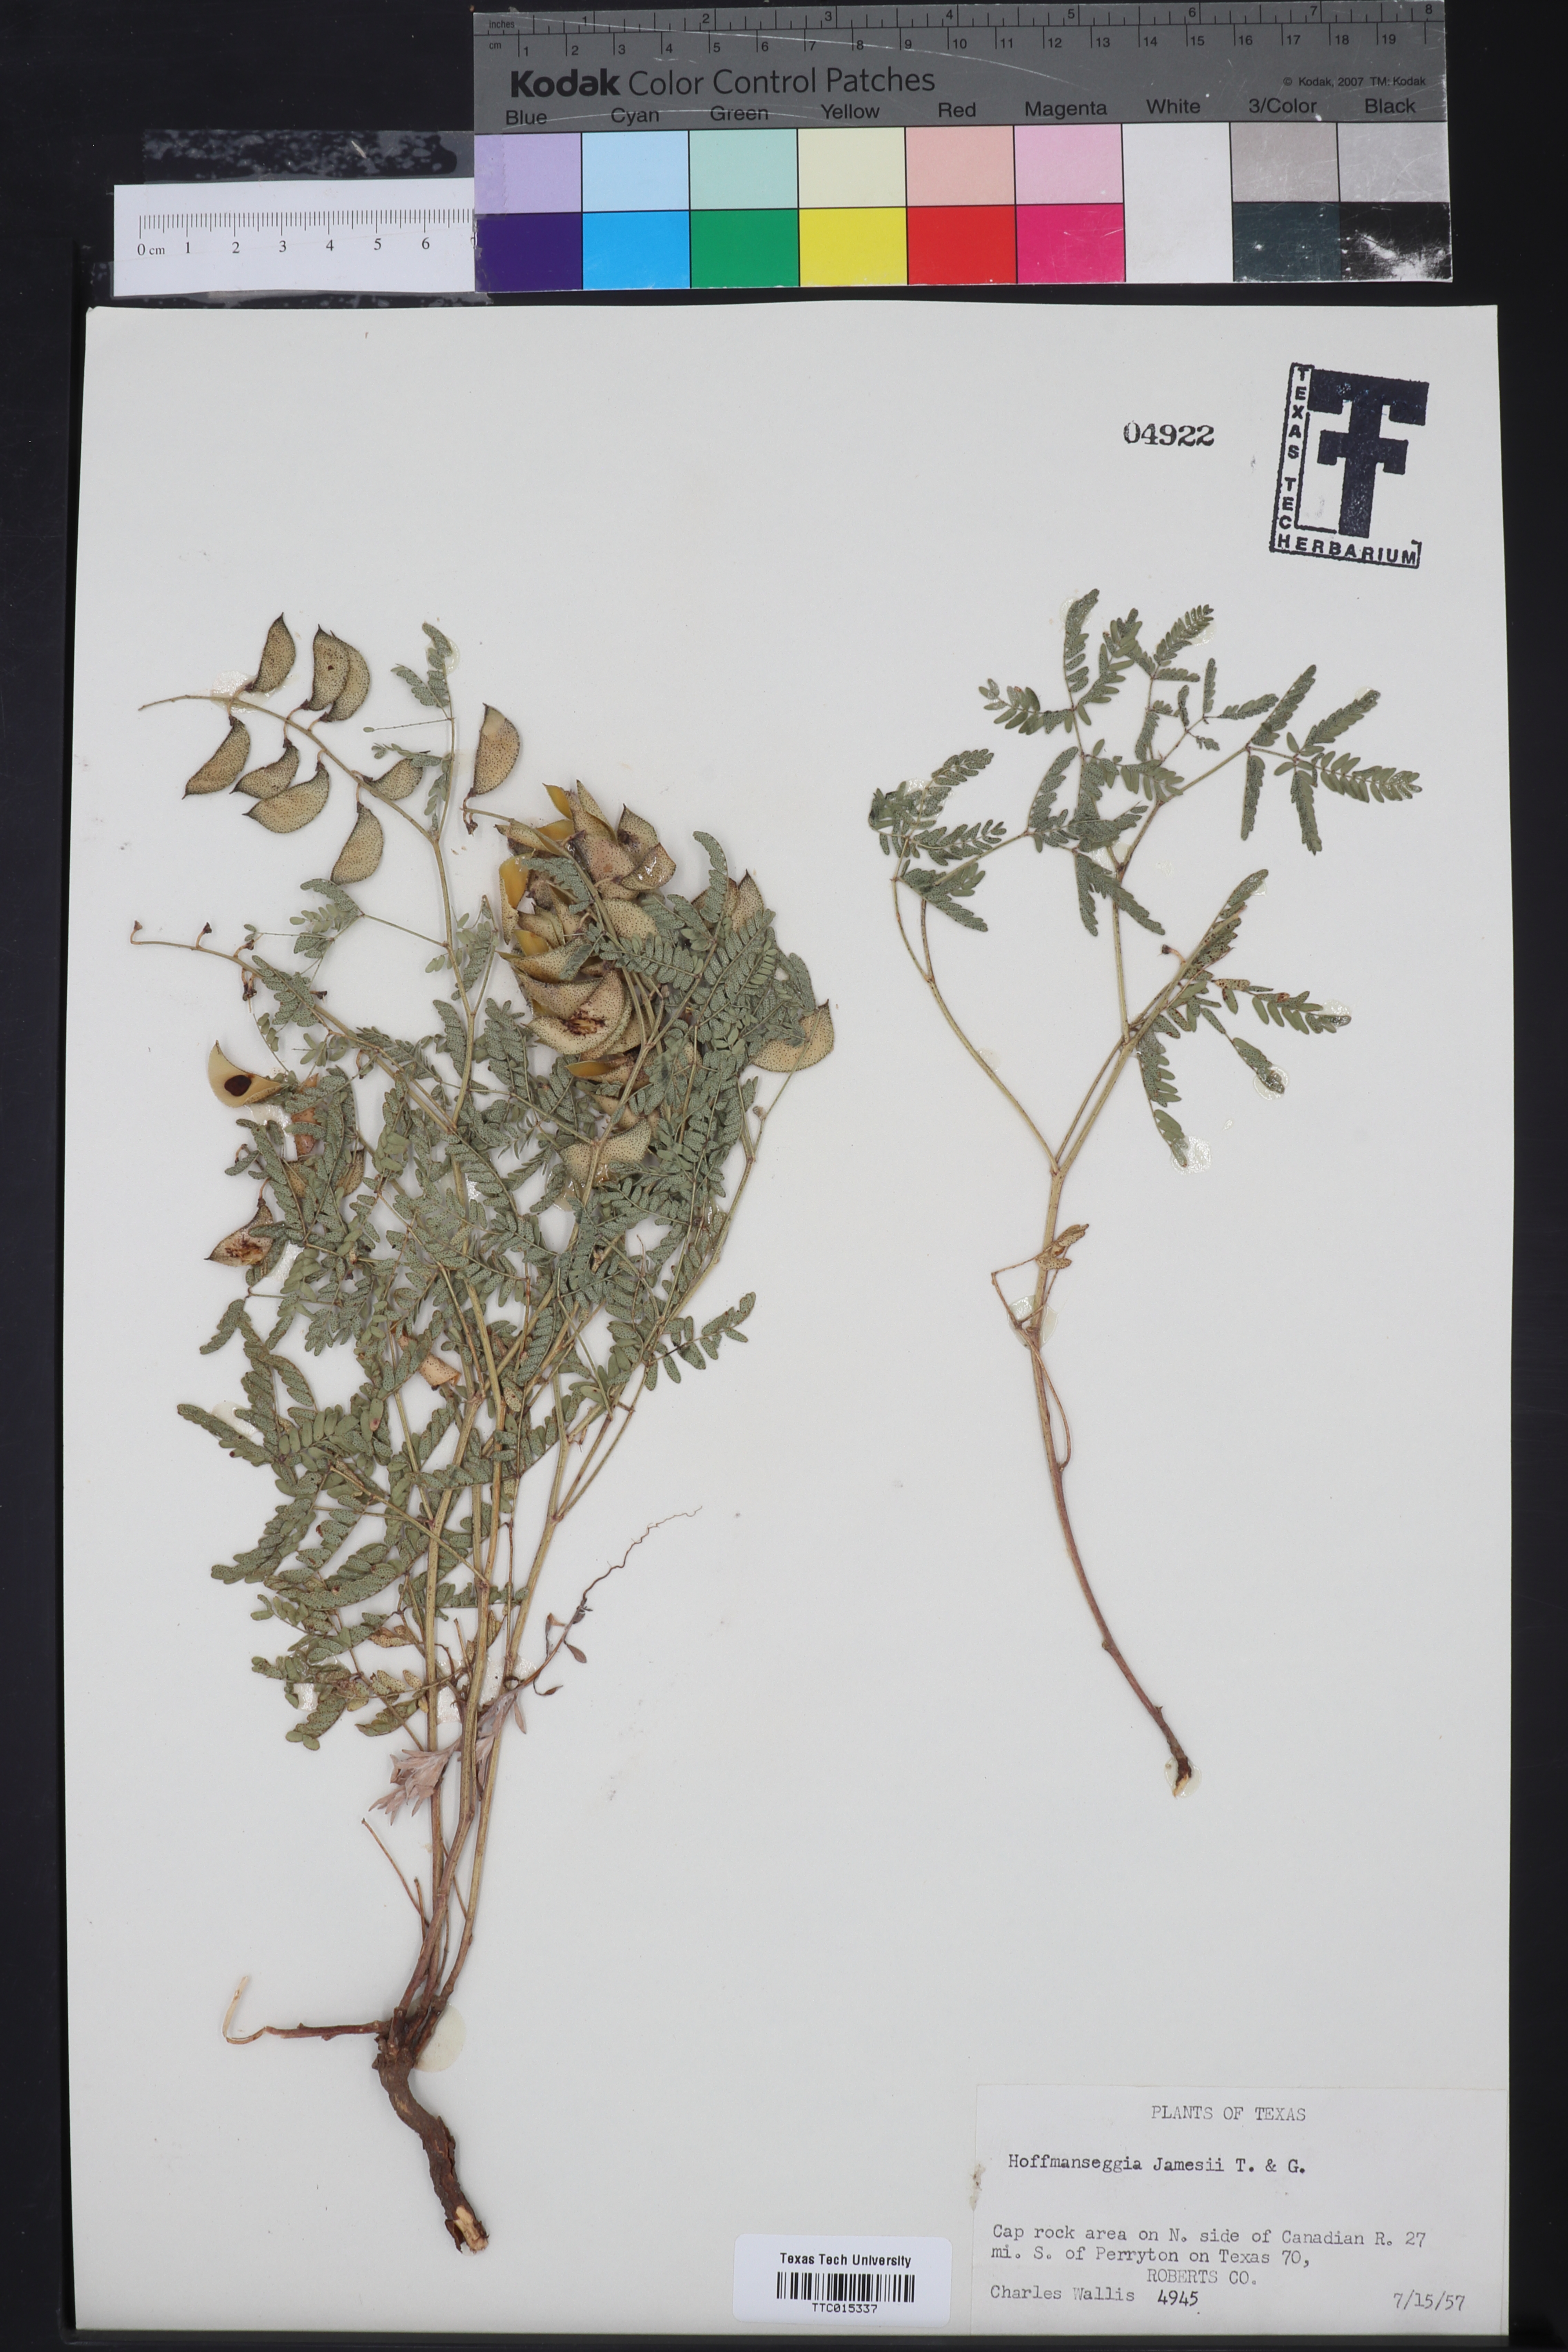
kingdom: Plantae
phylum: Tracheophyta
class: Magnoliopsida
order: Fabales
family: Fabaceae
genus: Pomaria
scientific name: Pomaria jamesii
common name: James' caesalpinia
